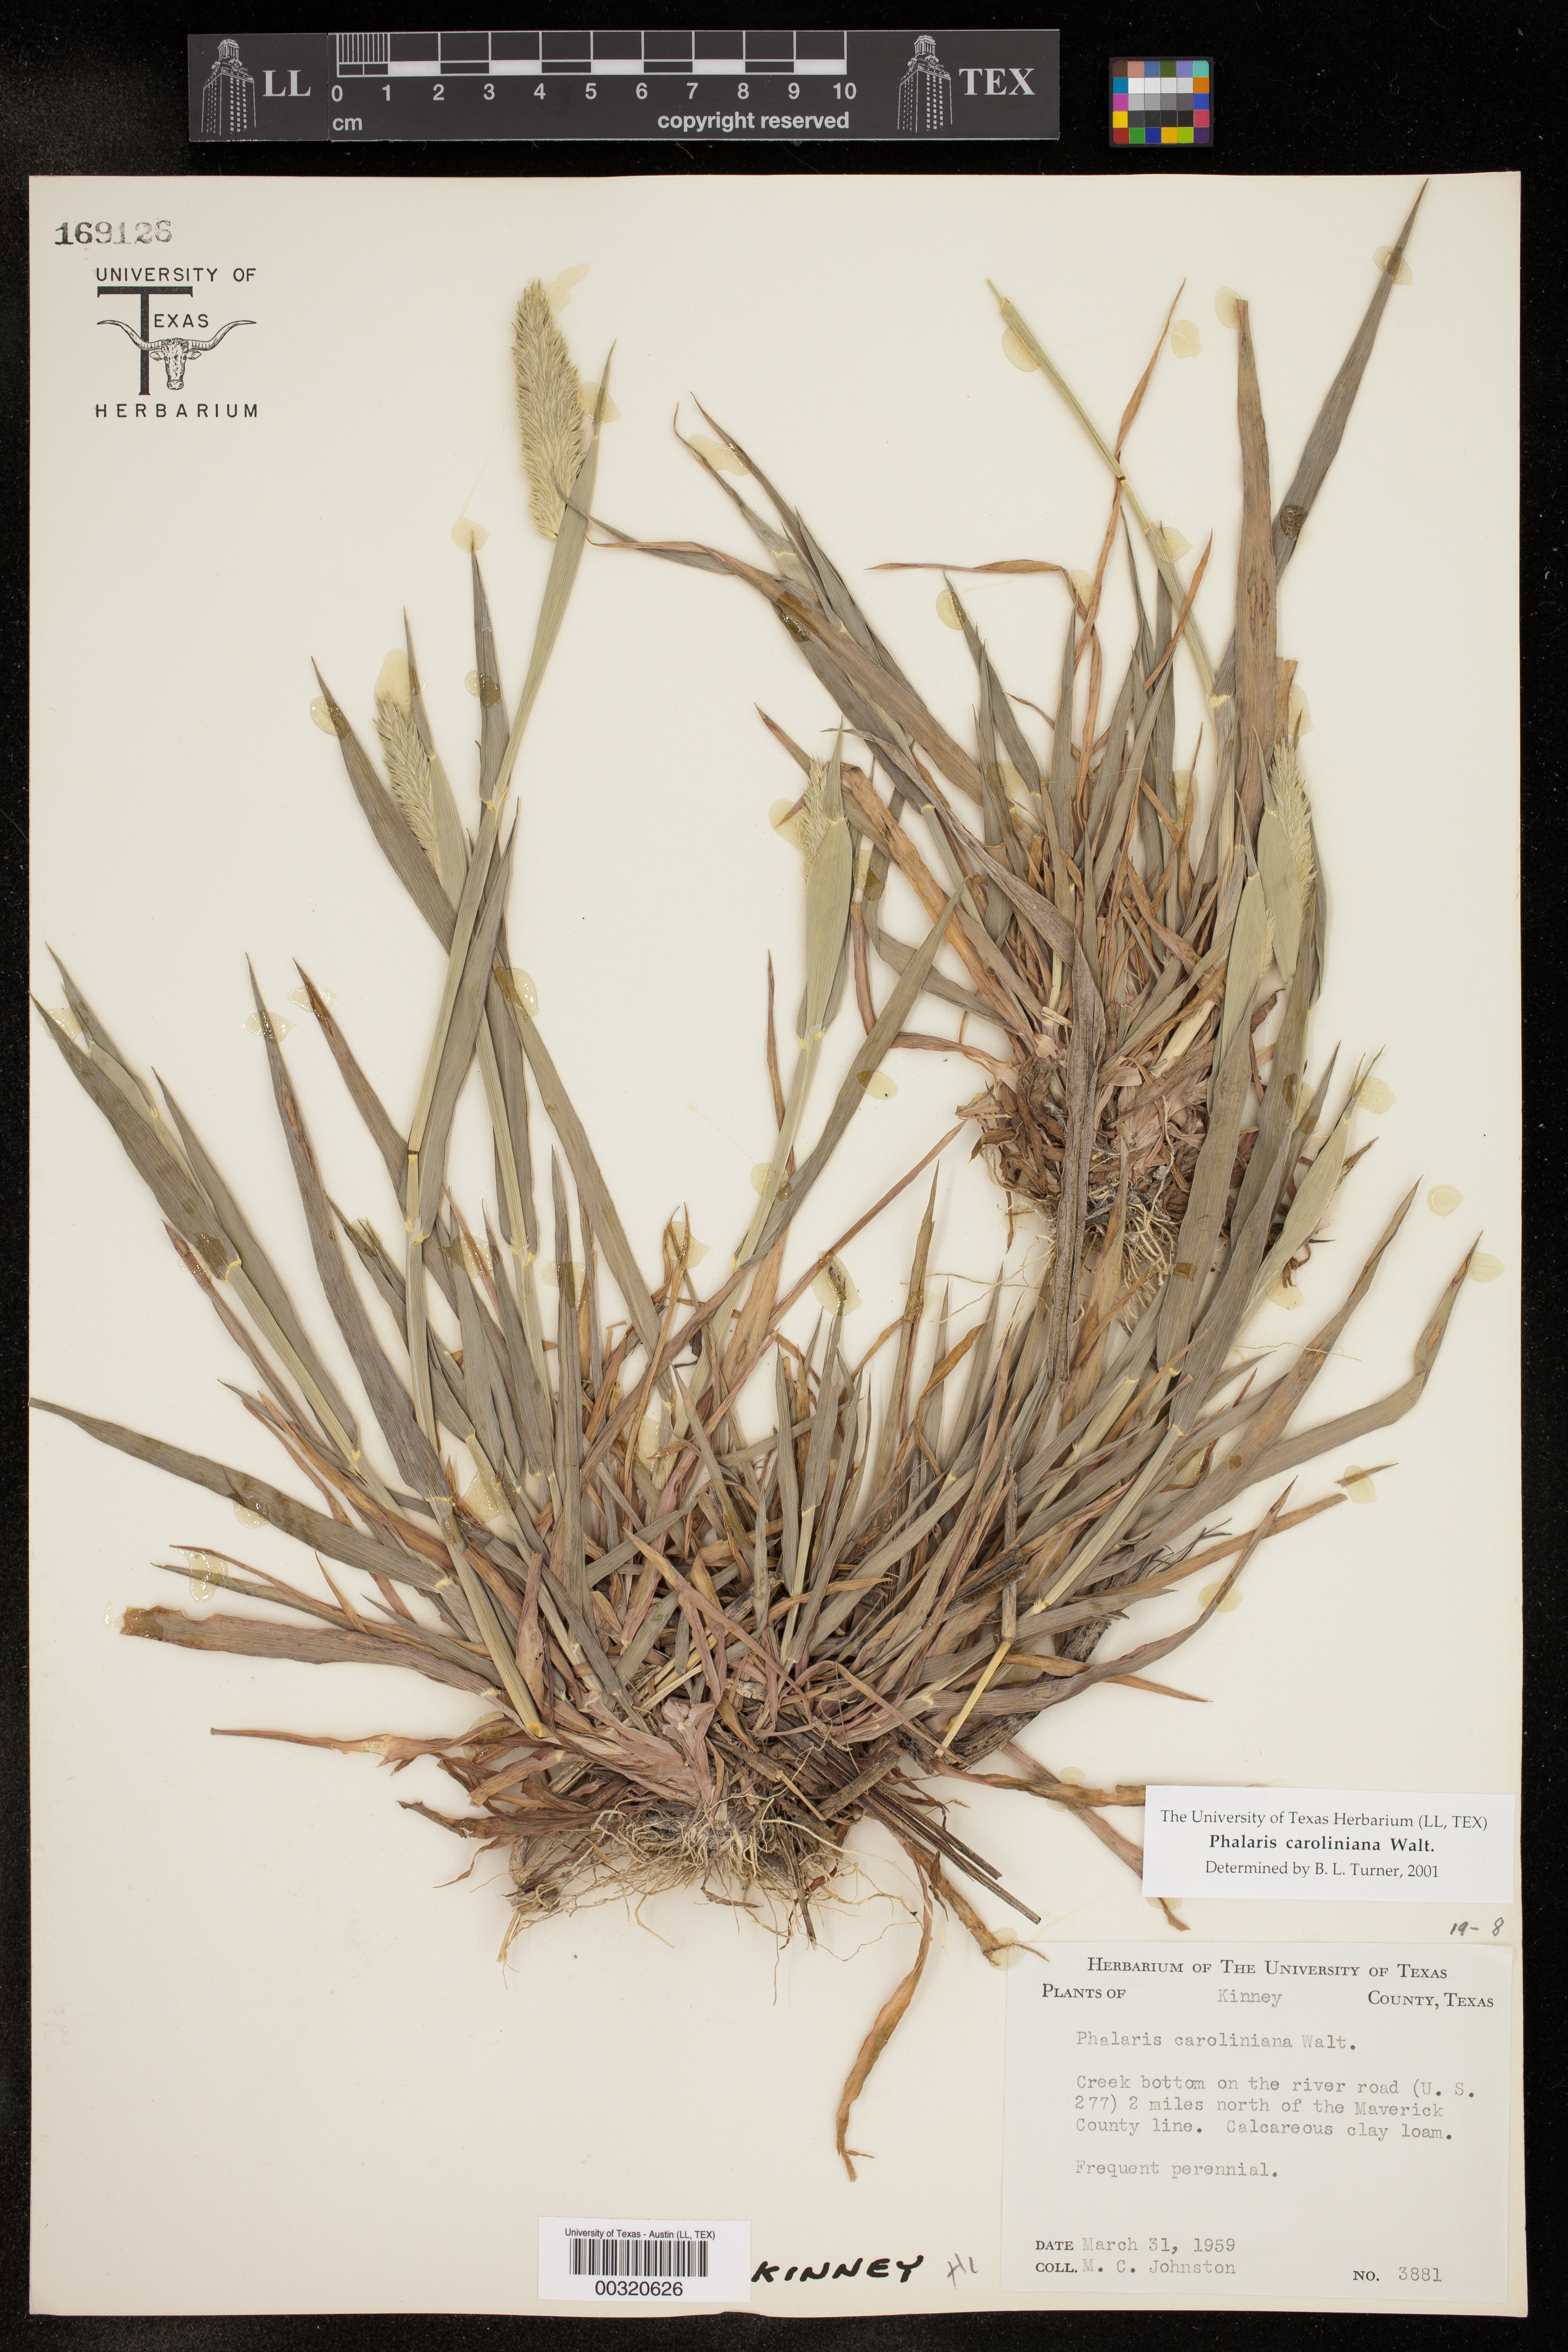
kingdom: Plantae
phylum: Tracheophyta
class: Liliopsida
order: Poales
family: Poaceae
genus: Phalaris
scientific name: Phalaris caroliniana
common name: May grass
